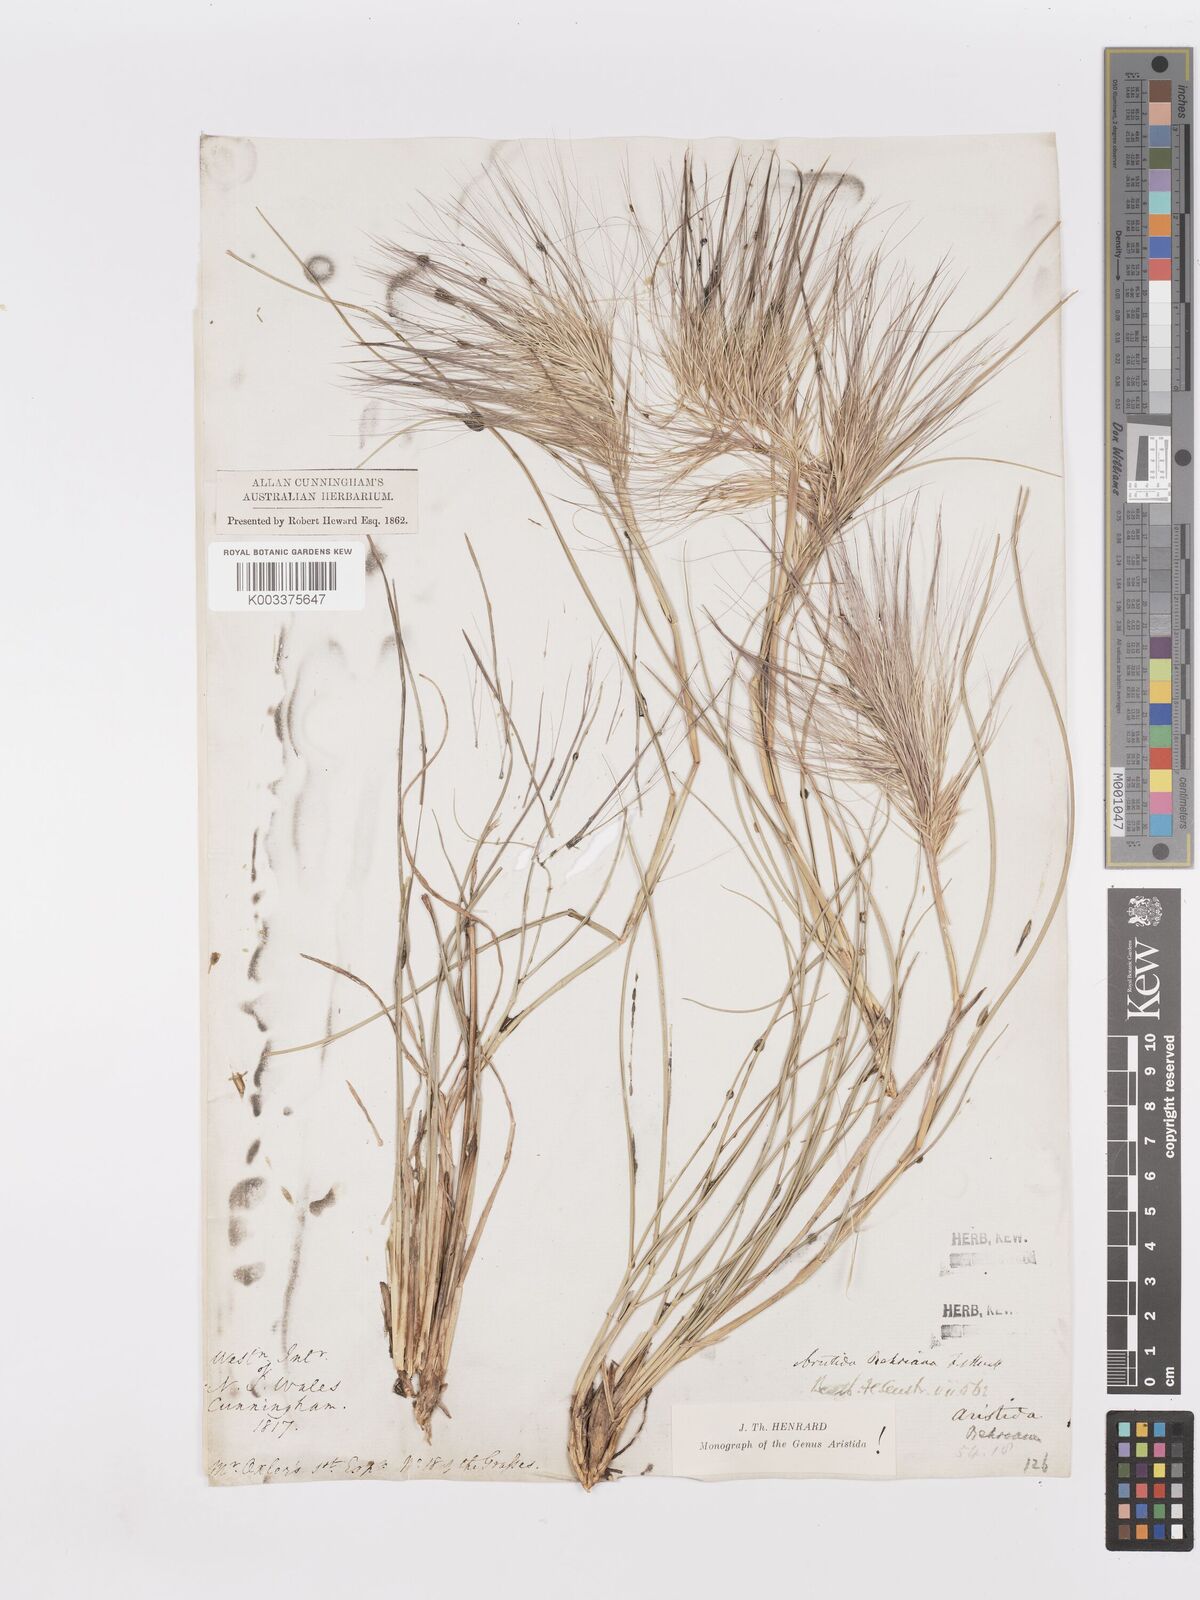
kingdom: Plantae
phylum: Tracheophyta
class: Liliopsida
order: Poales
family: Poaceae
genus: Aristida
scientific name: Aristida behriana
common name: Long-awn wire grass
